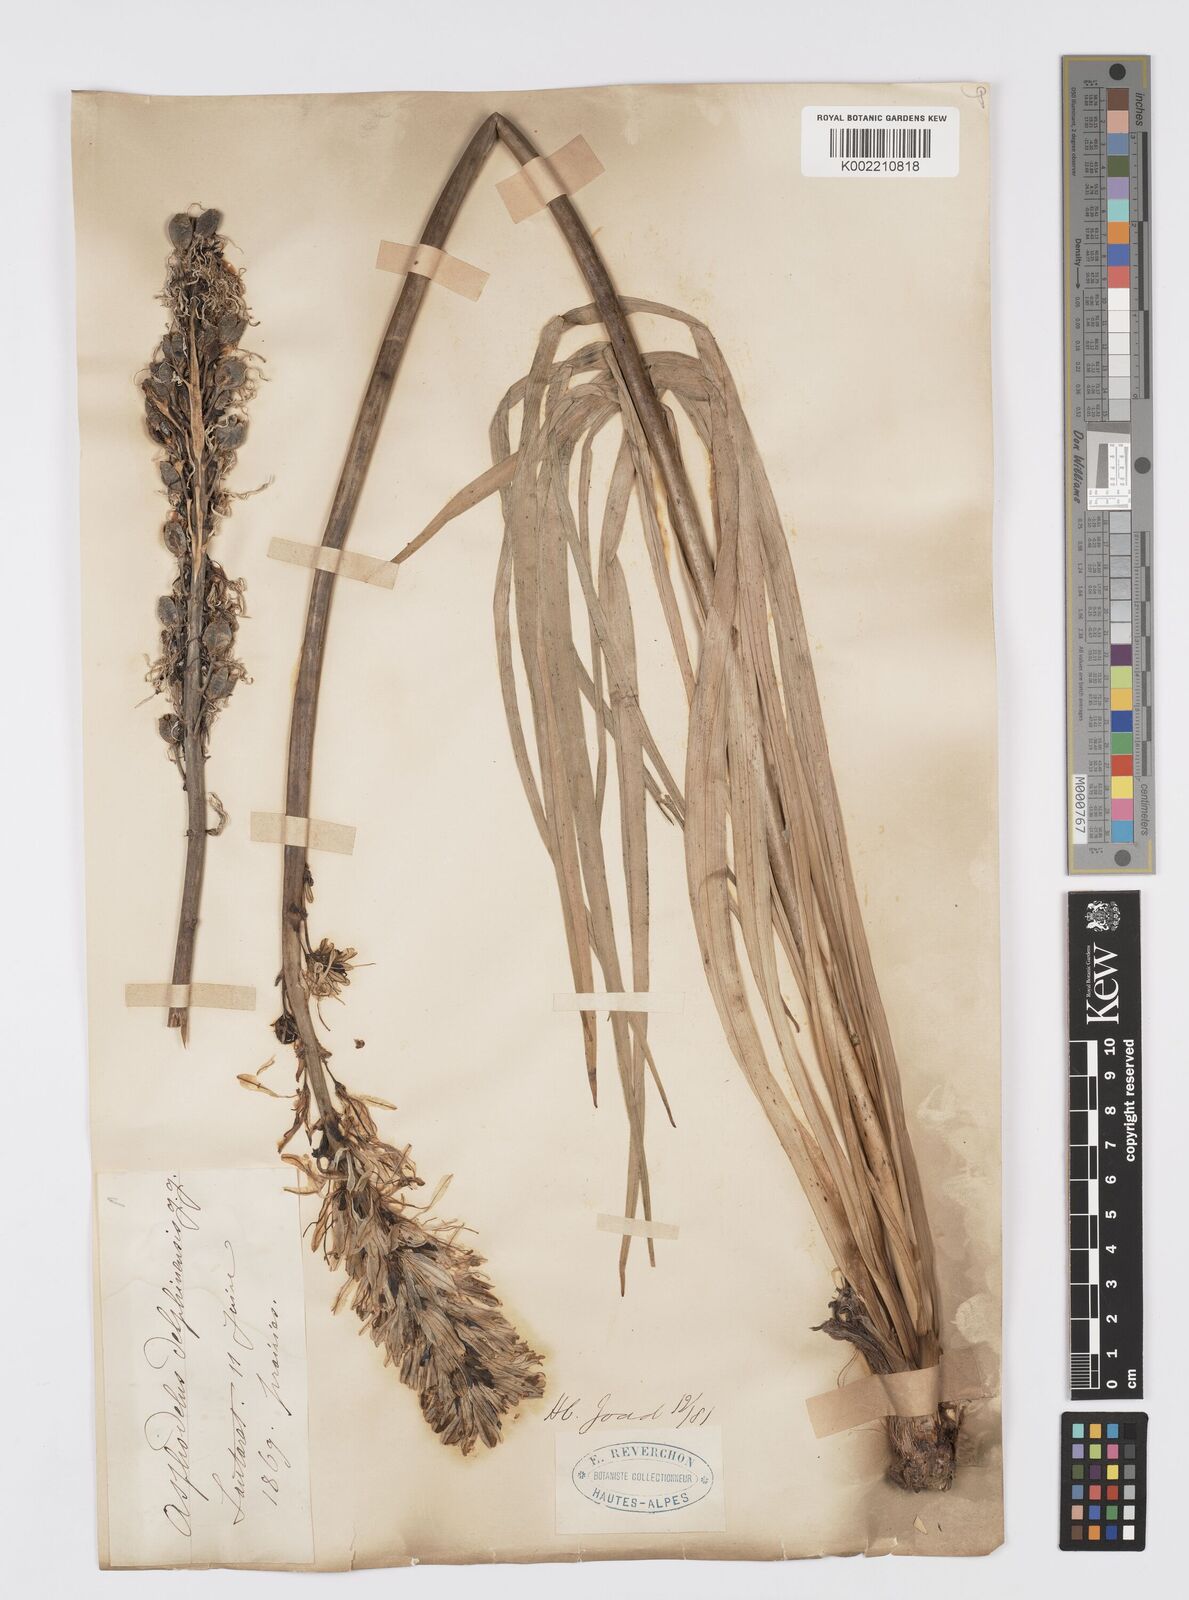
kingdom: Plantae
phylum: Tracheophyta
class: Liliopsida
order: Asparagales
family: Asphodelaceae
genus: Asphodelus
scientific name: Asphodelus albus
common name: White asphodel
